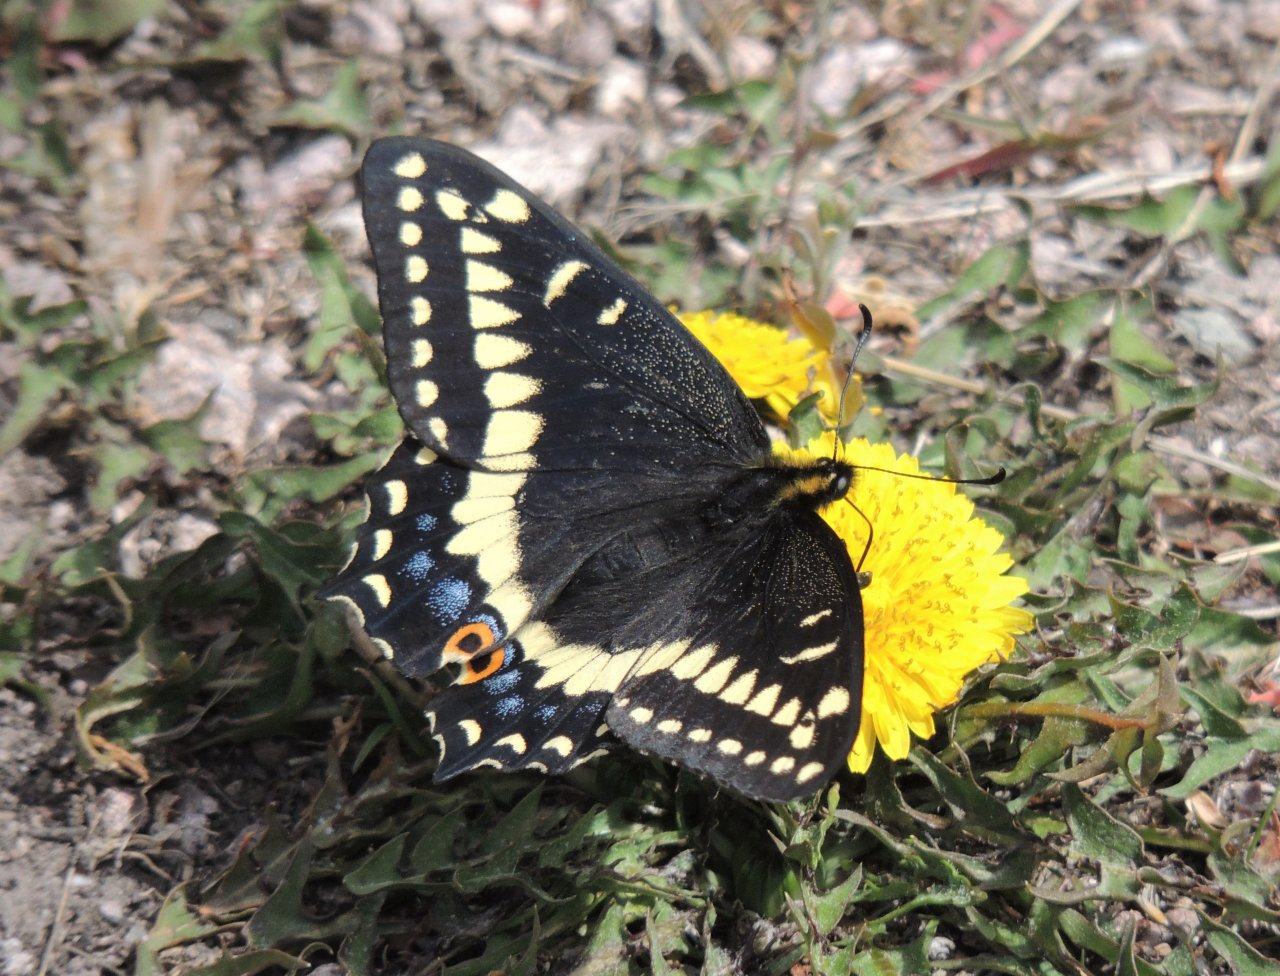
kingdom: Animalia
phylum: Arthropoda
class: Insecta
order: Lepidoptera
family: Papilionidae
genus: Papilio
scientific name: Papilio indra
